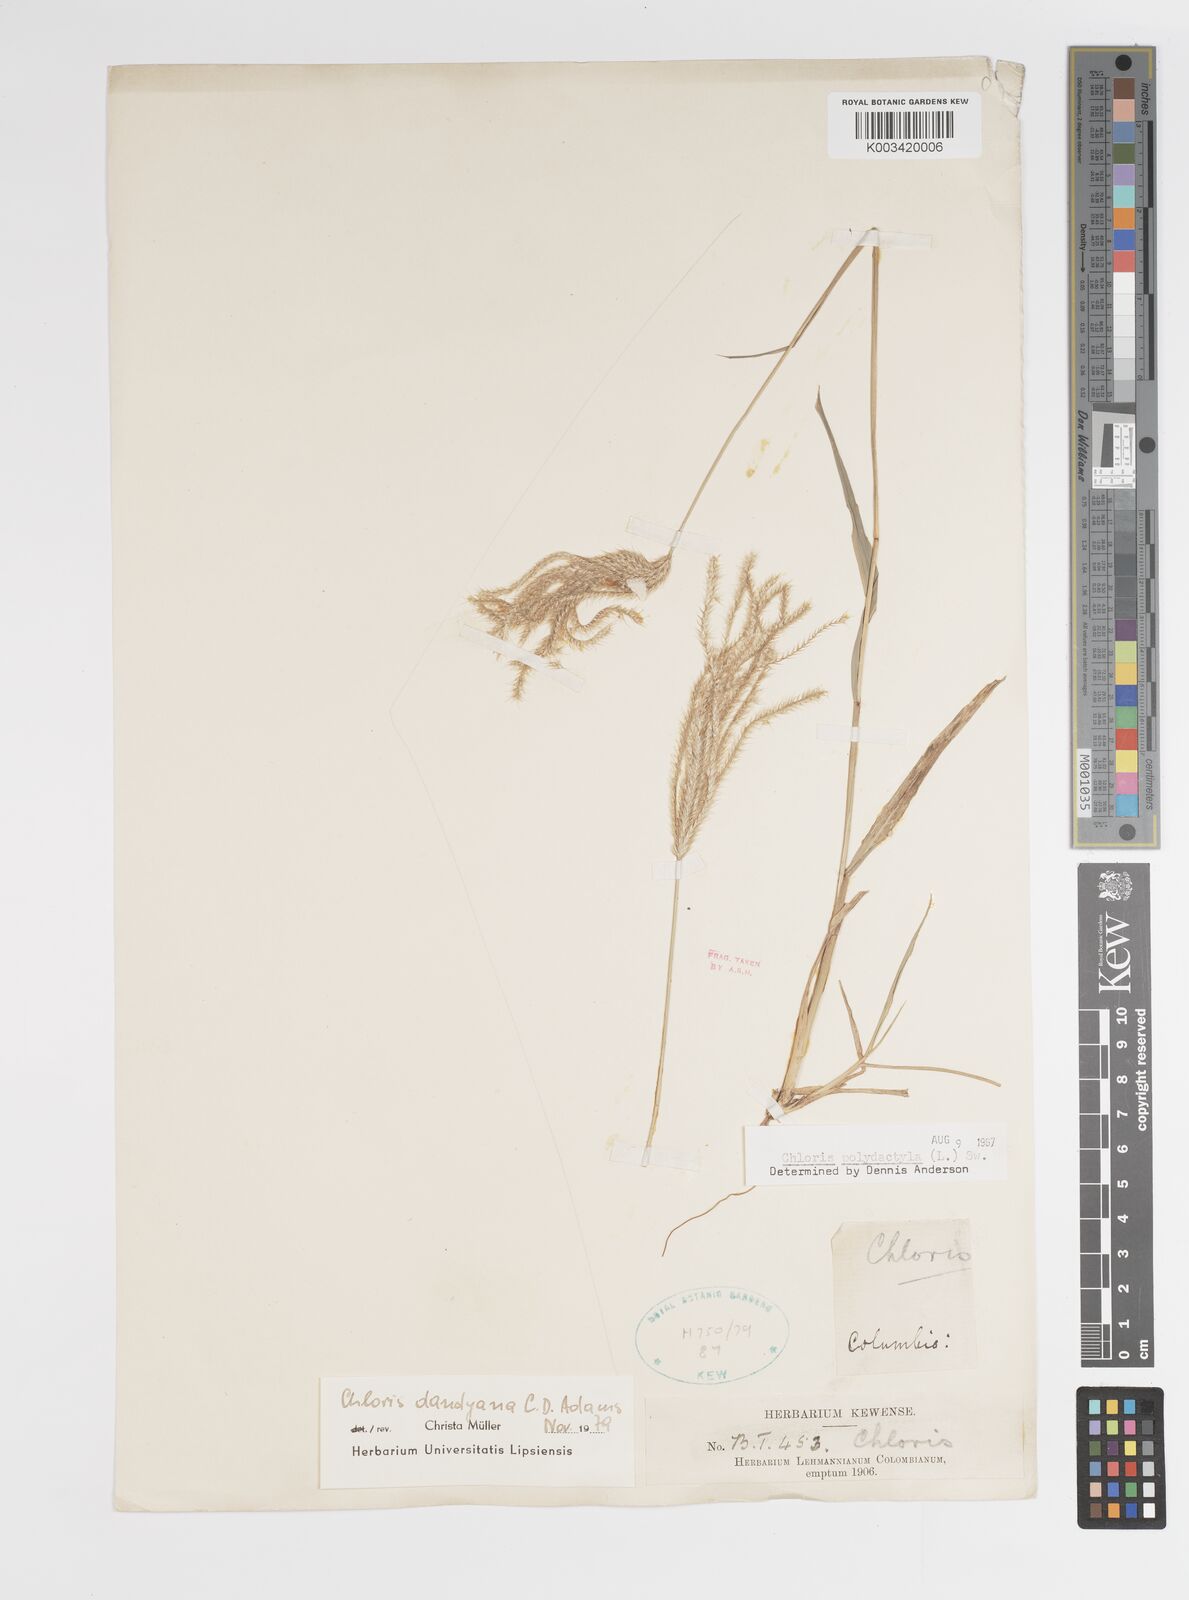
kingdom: Plantae
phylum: Tracheophyta
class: Liliopsida
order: Poales
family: Poaceae
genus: Stapfochloa
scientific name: Stapfochloa elata
